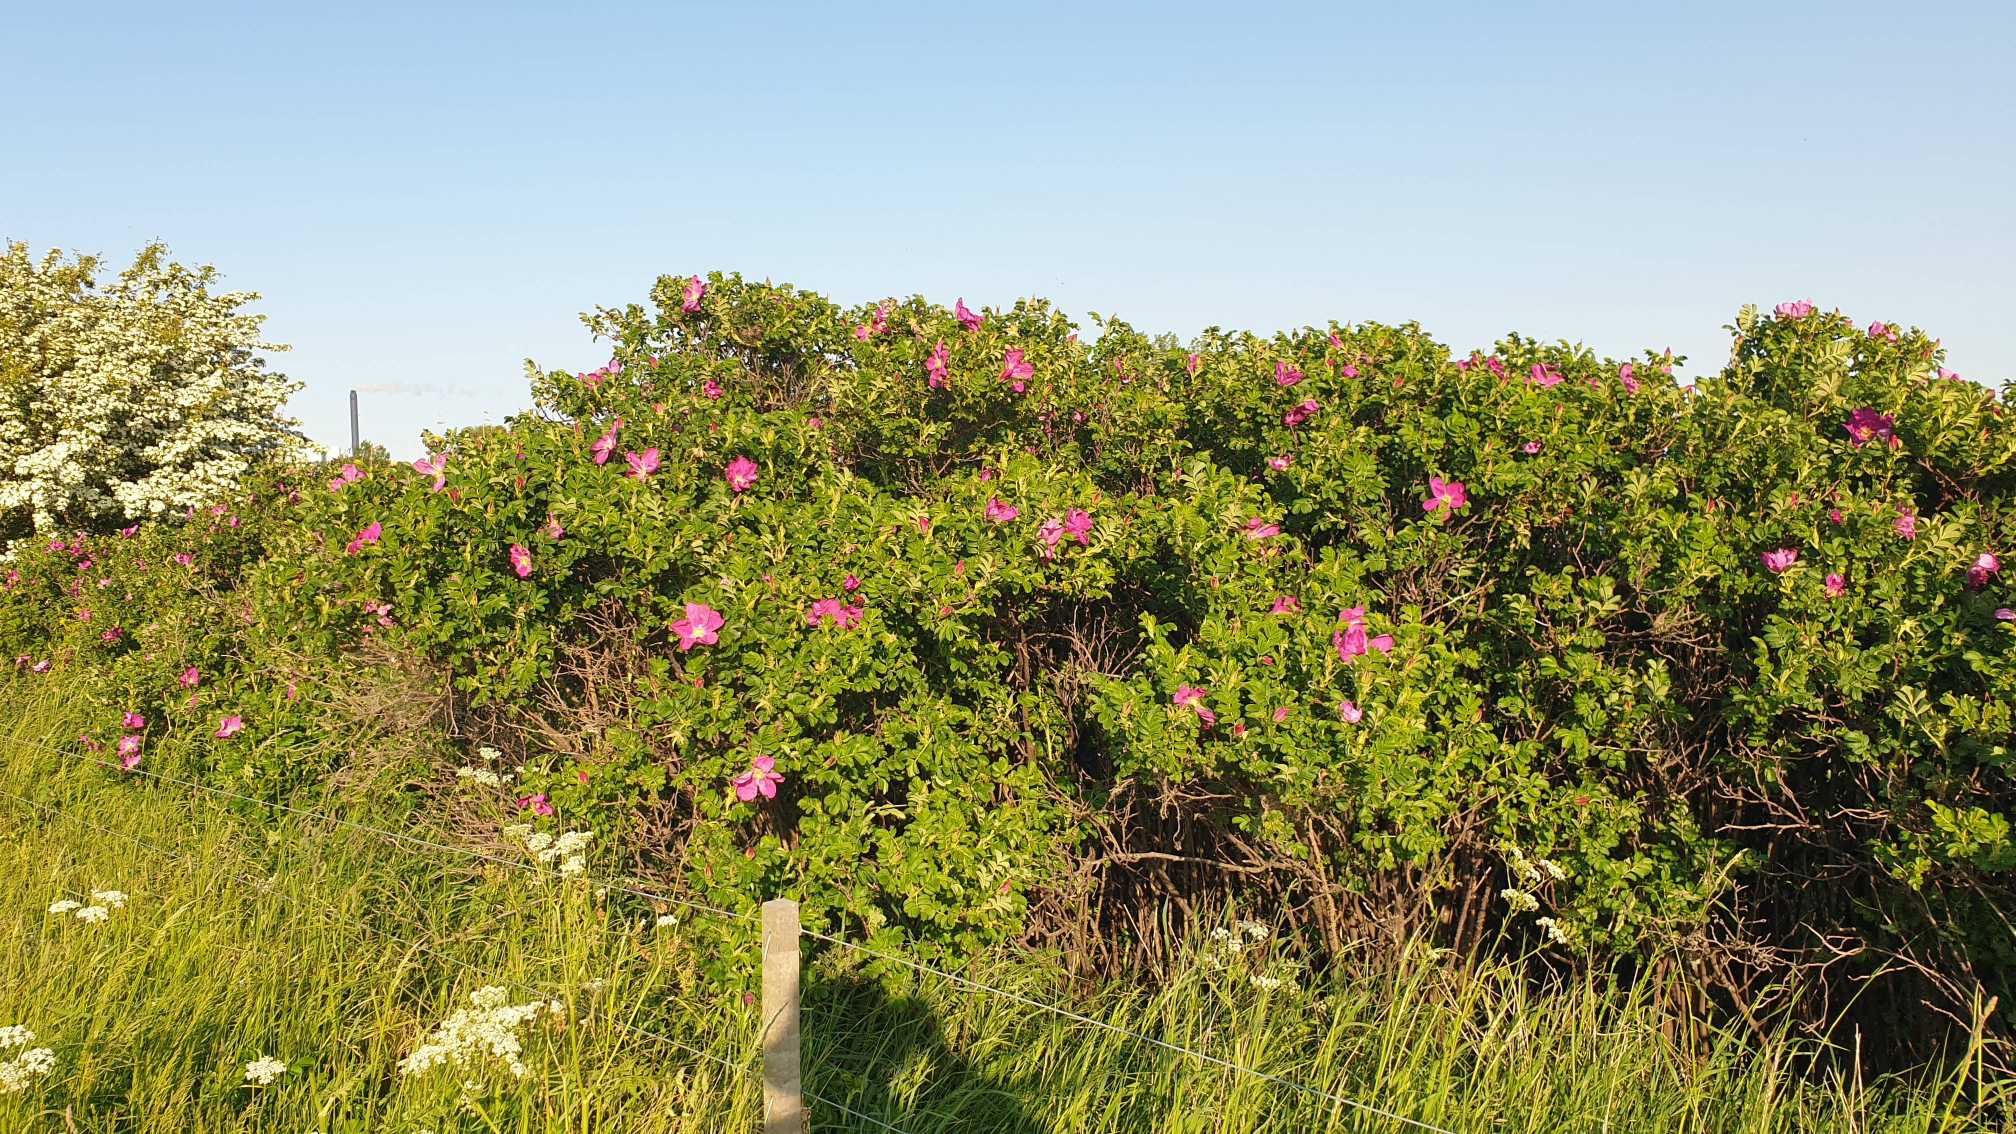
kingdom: Plantae
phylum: Tracheophyta
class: Magnoliopsida
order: Rosales
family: Rosaceae
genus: Rosa
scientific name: Rosa rugosa
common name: Rynket rose
